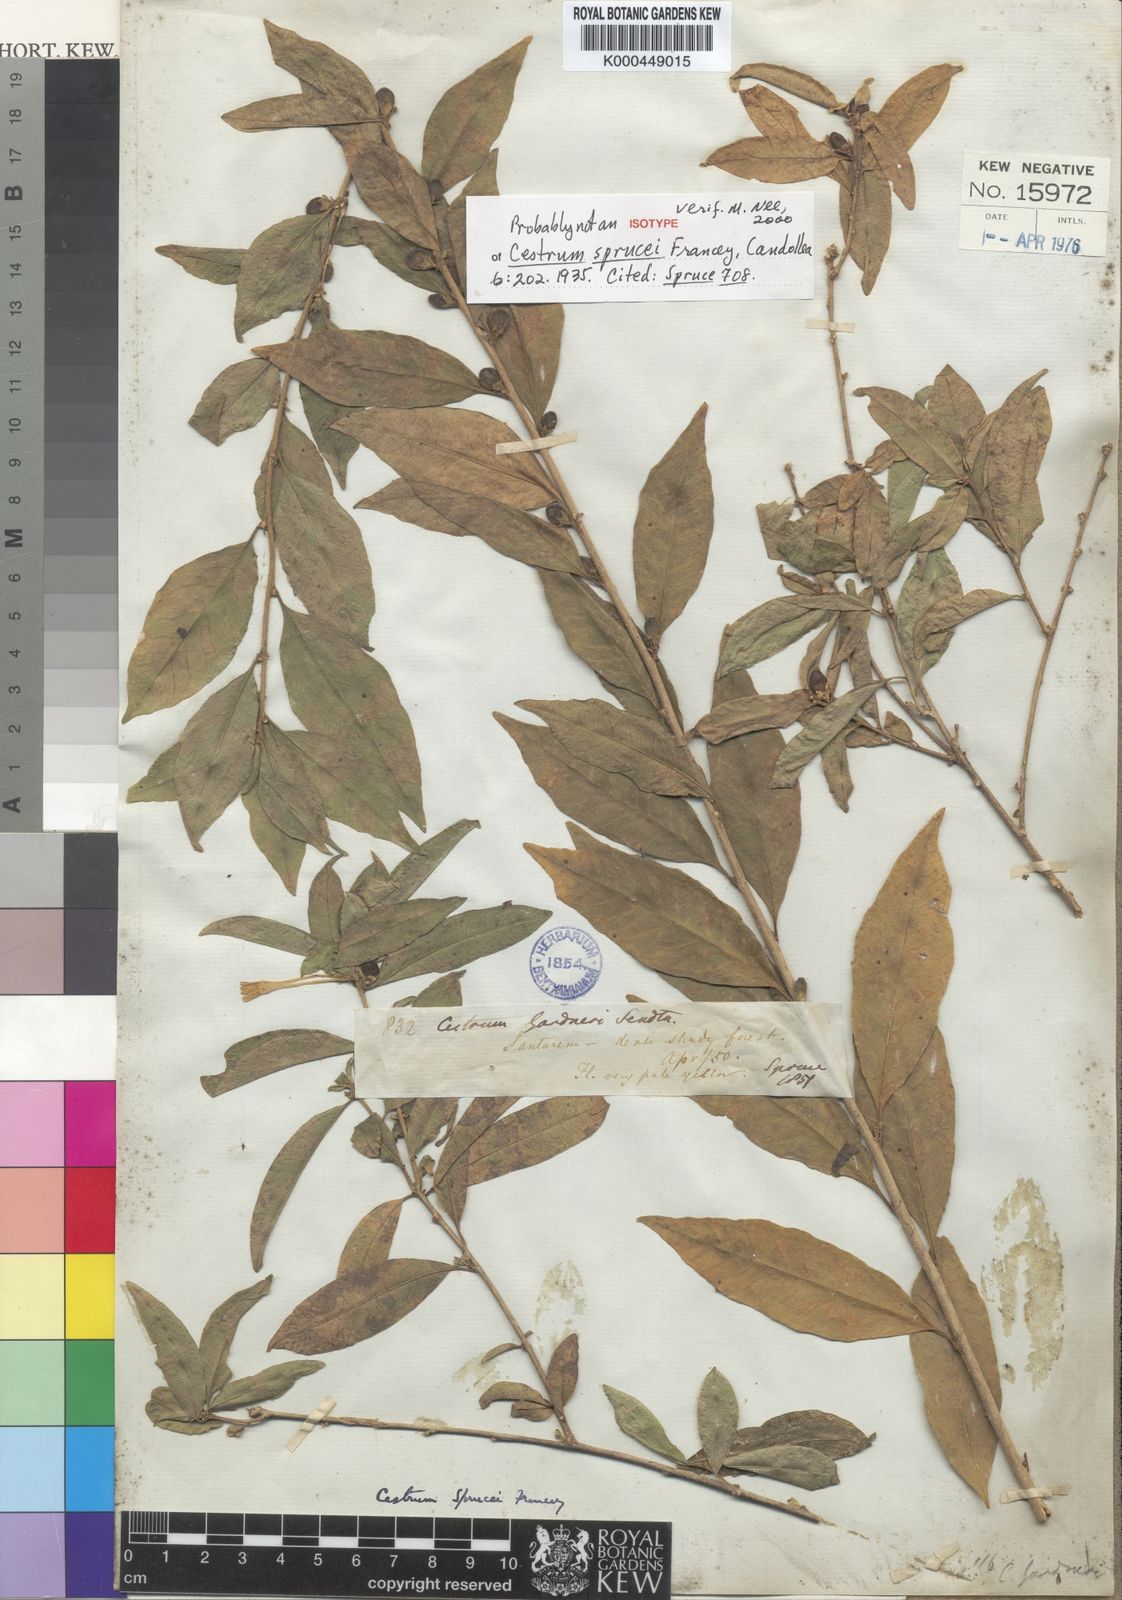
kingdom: Plantae
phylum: Tracheophyta
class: Magnoliopsida
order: Solanales
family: Solanaceae
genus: Cestrum
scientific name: Cestrum schulzianum
